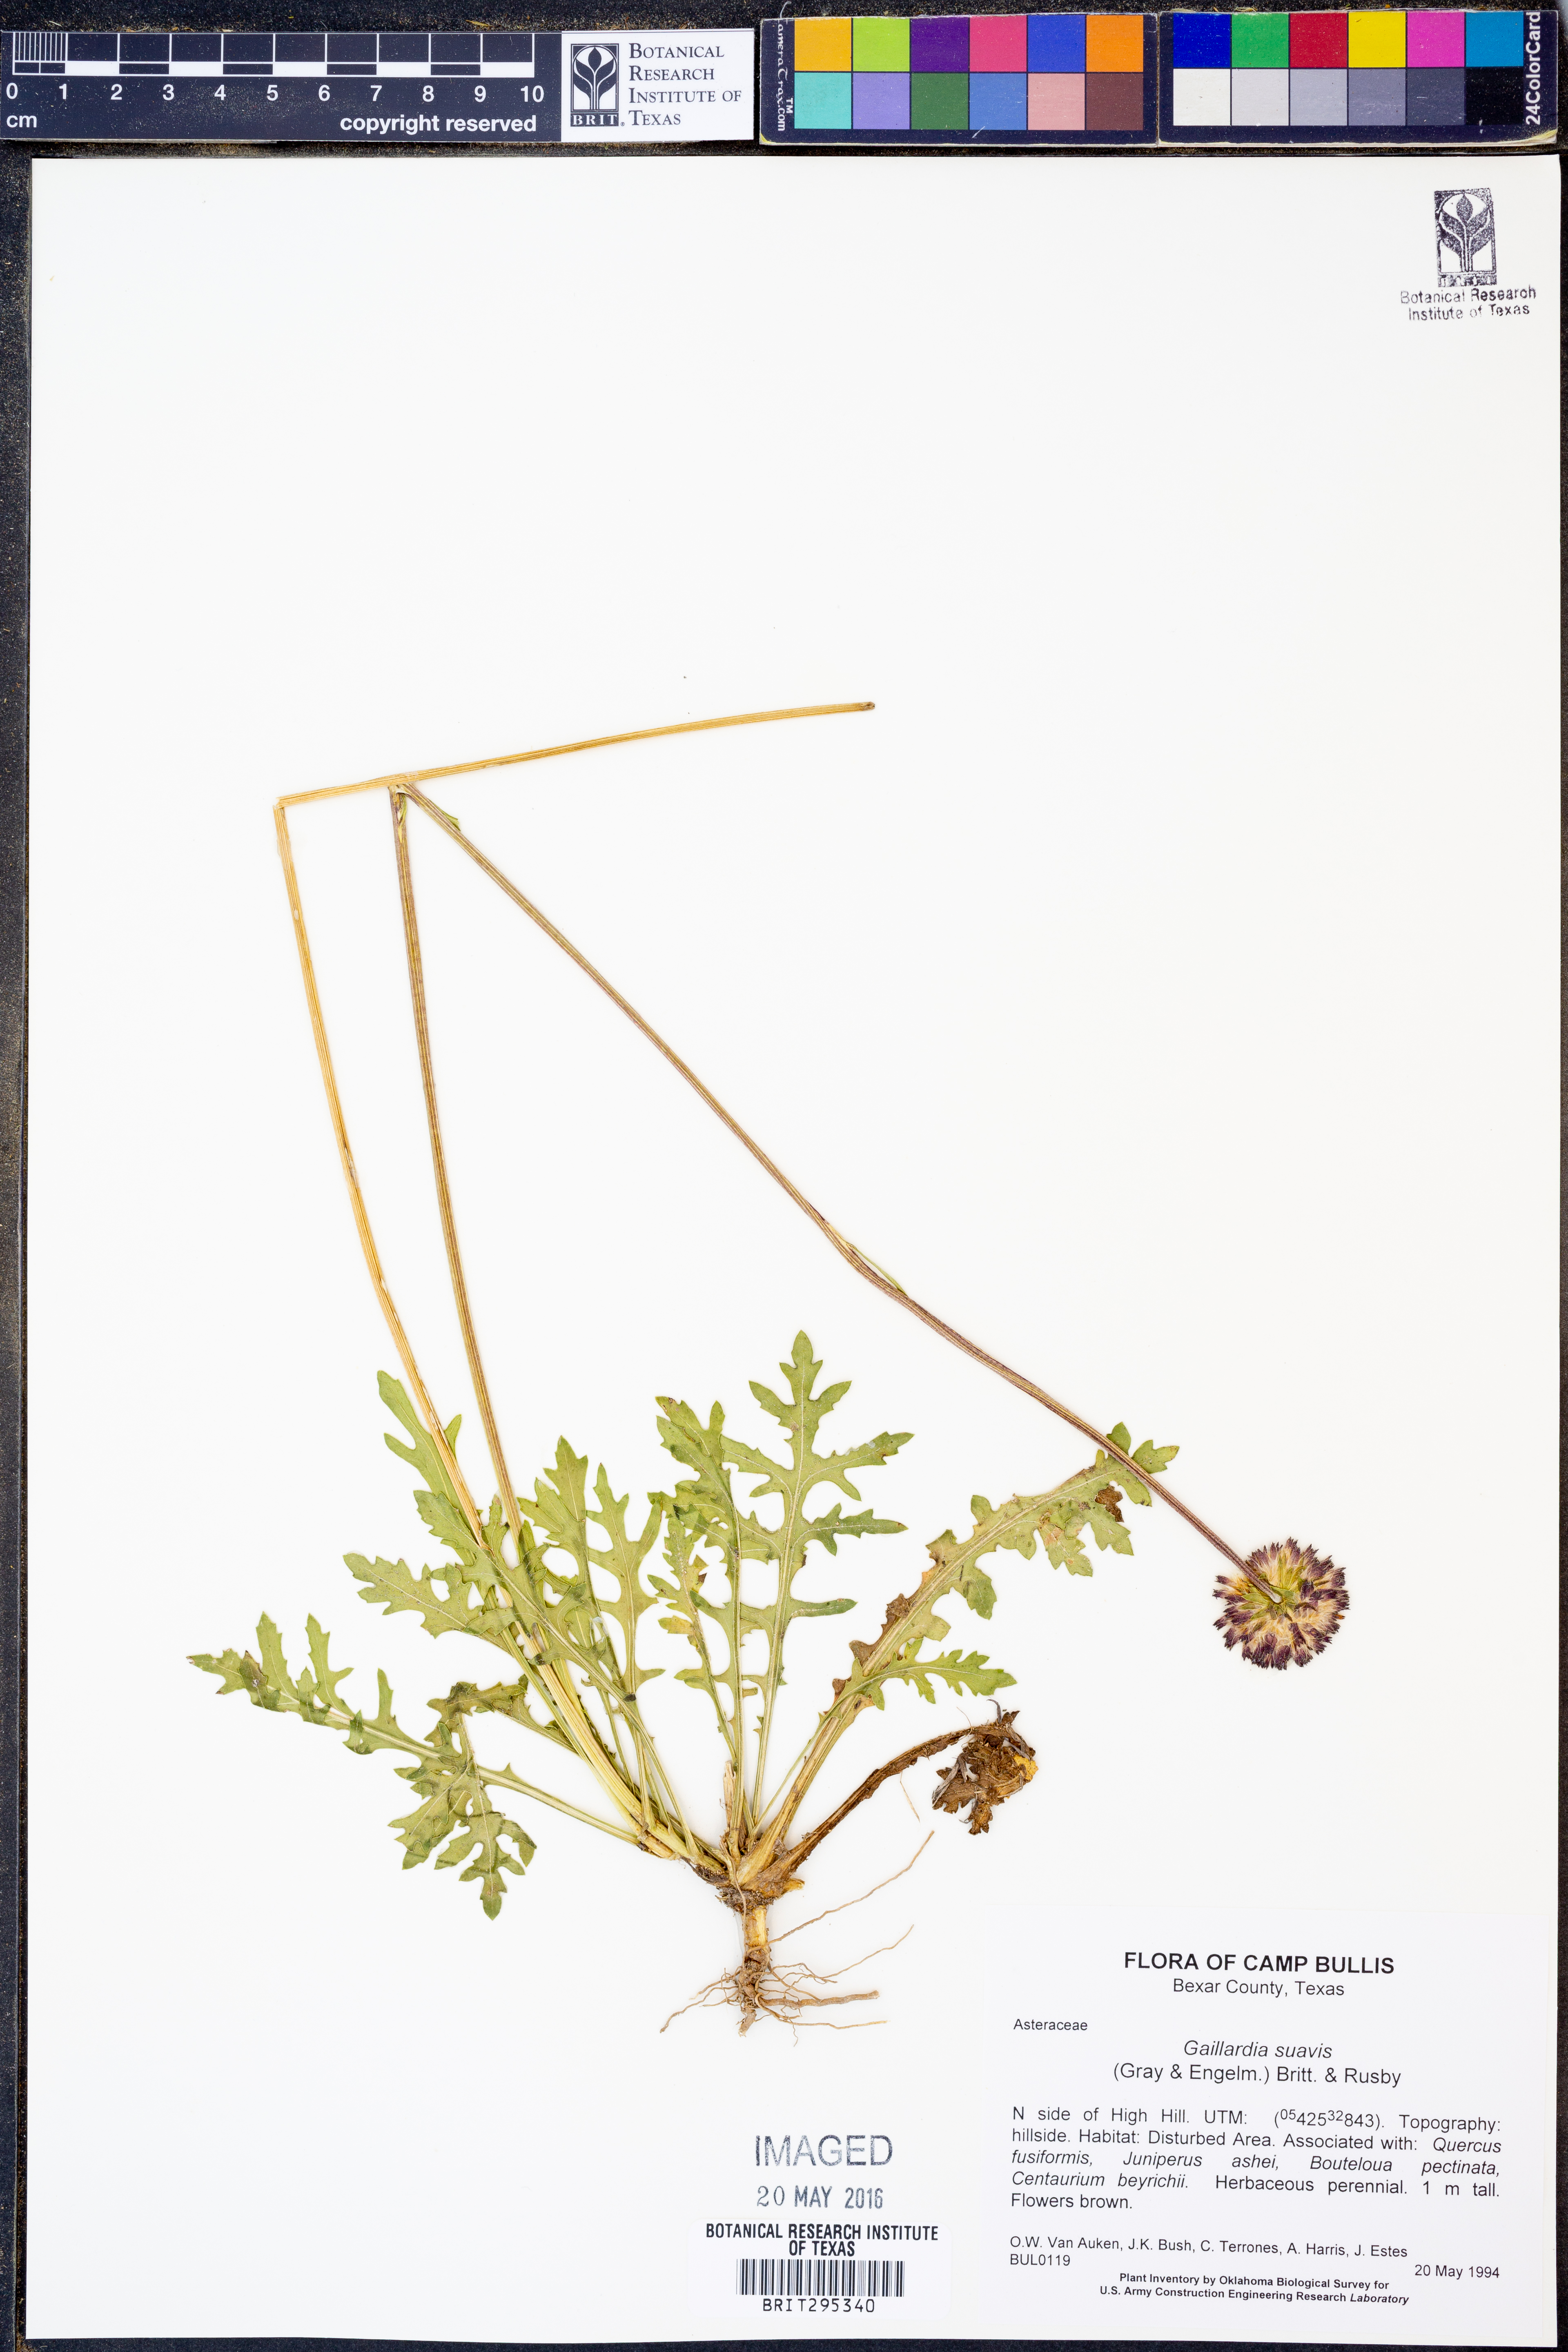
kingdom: Plantae
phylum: Tracheophyta
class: Magnoliopsida
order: Asterales
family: Asteraceae
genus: Gaillardia
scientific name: Gaillardia suavis
